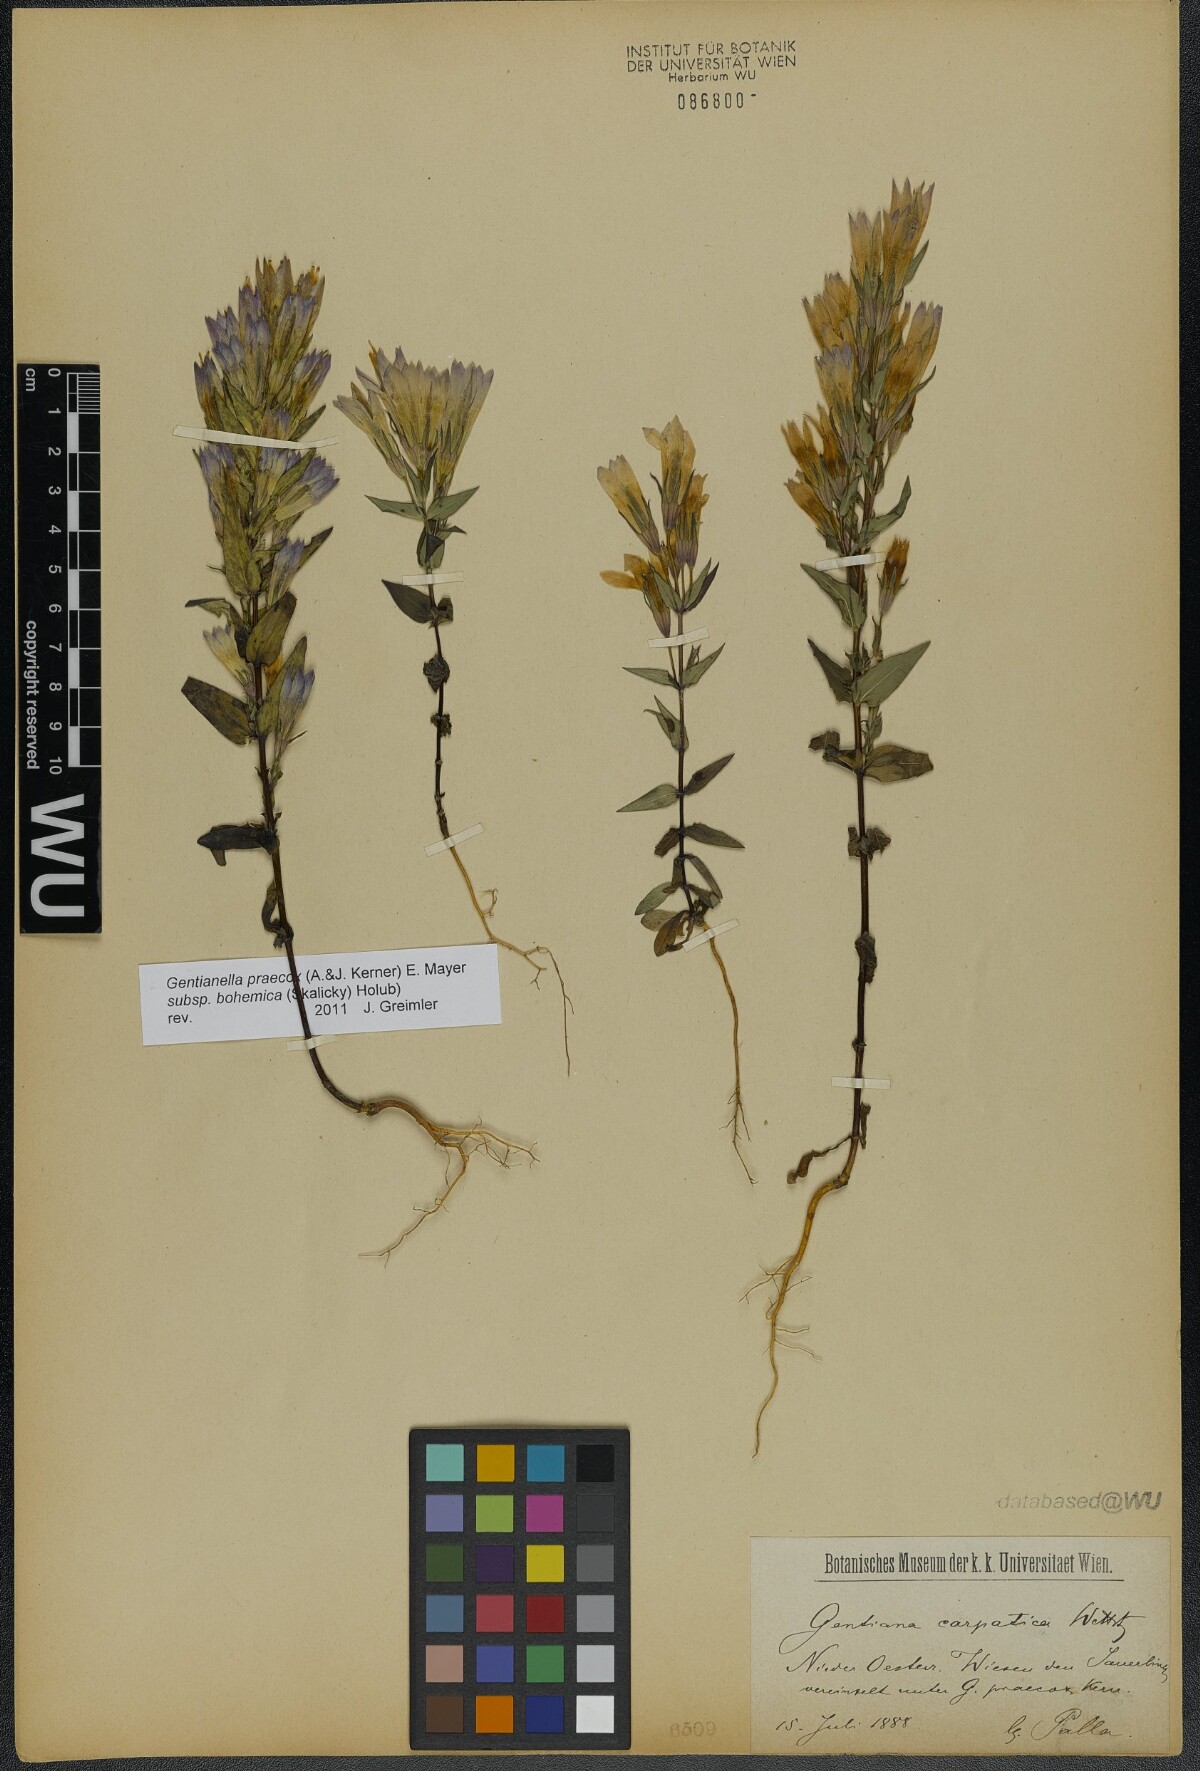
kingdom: Plantae
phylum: Tracheophyta
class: Magnoliopsida
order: Gentianales
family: Gentianaceae
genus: Gentianella
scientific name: Gentianella praecox
